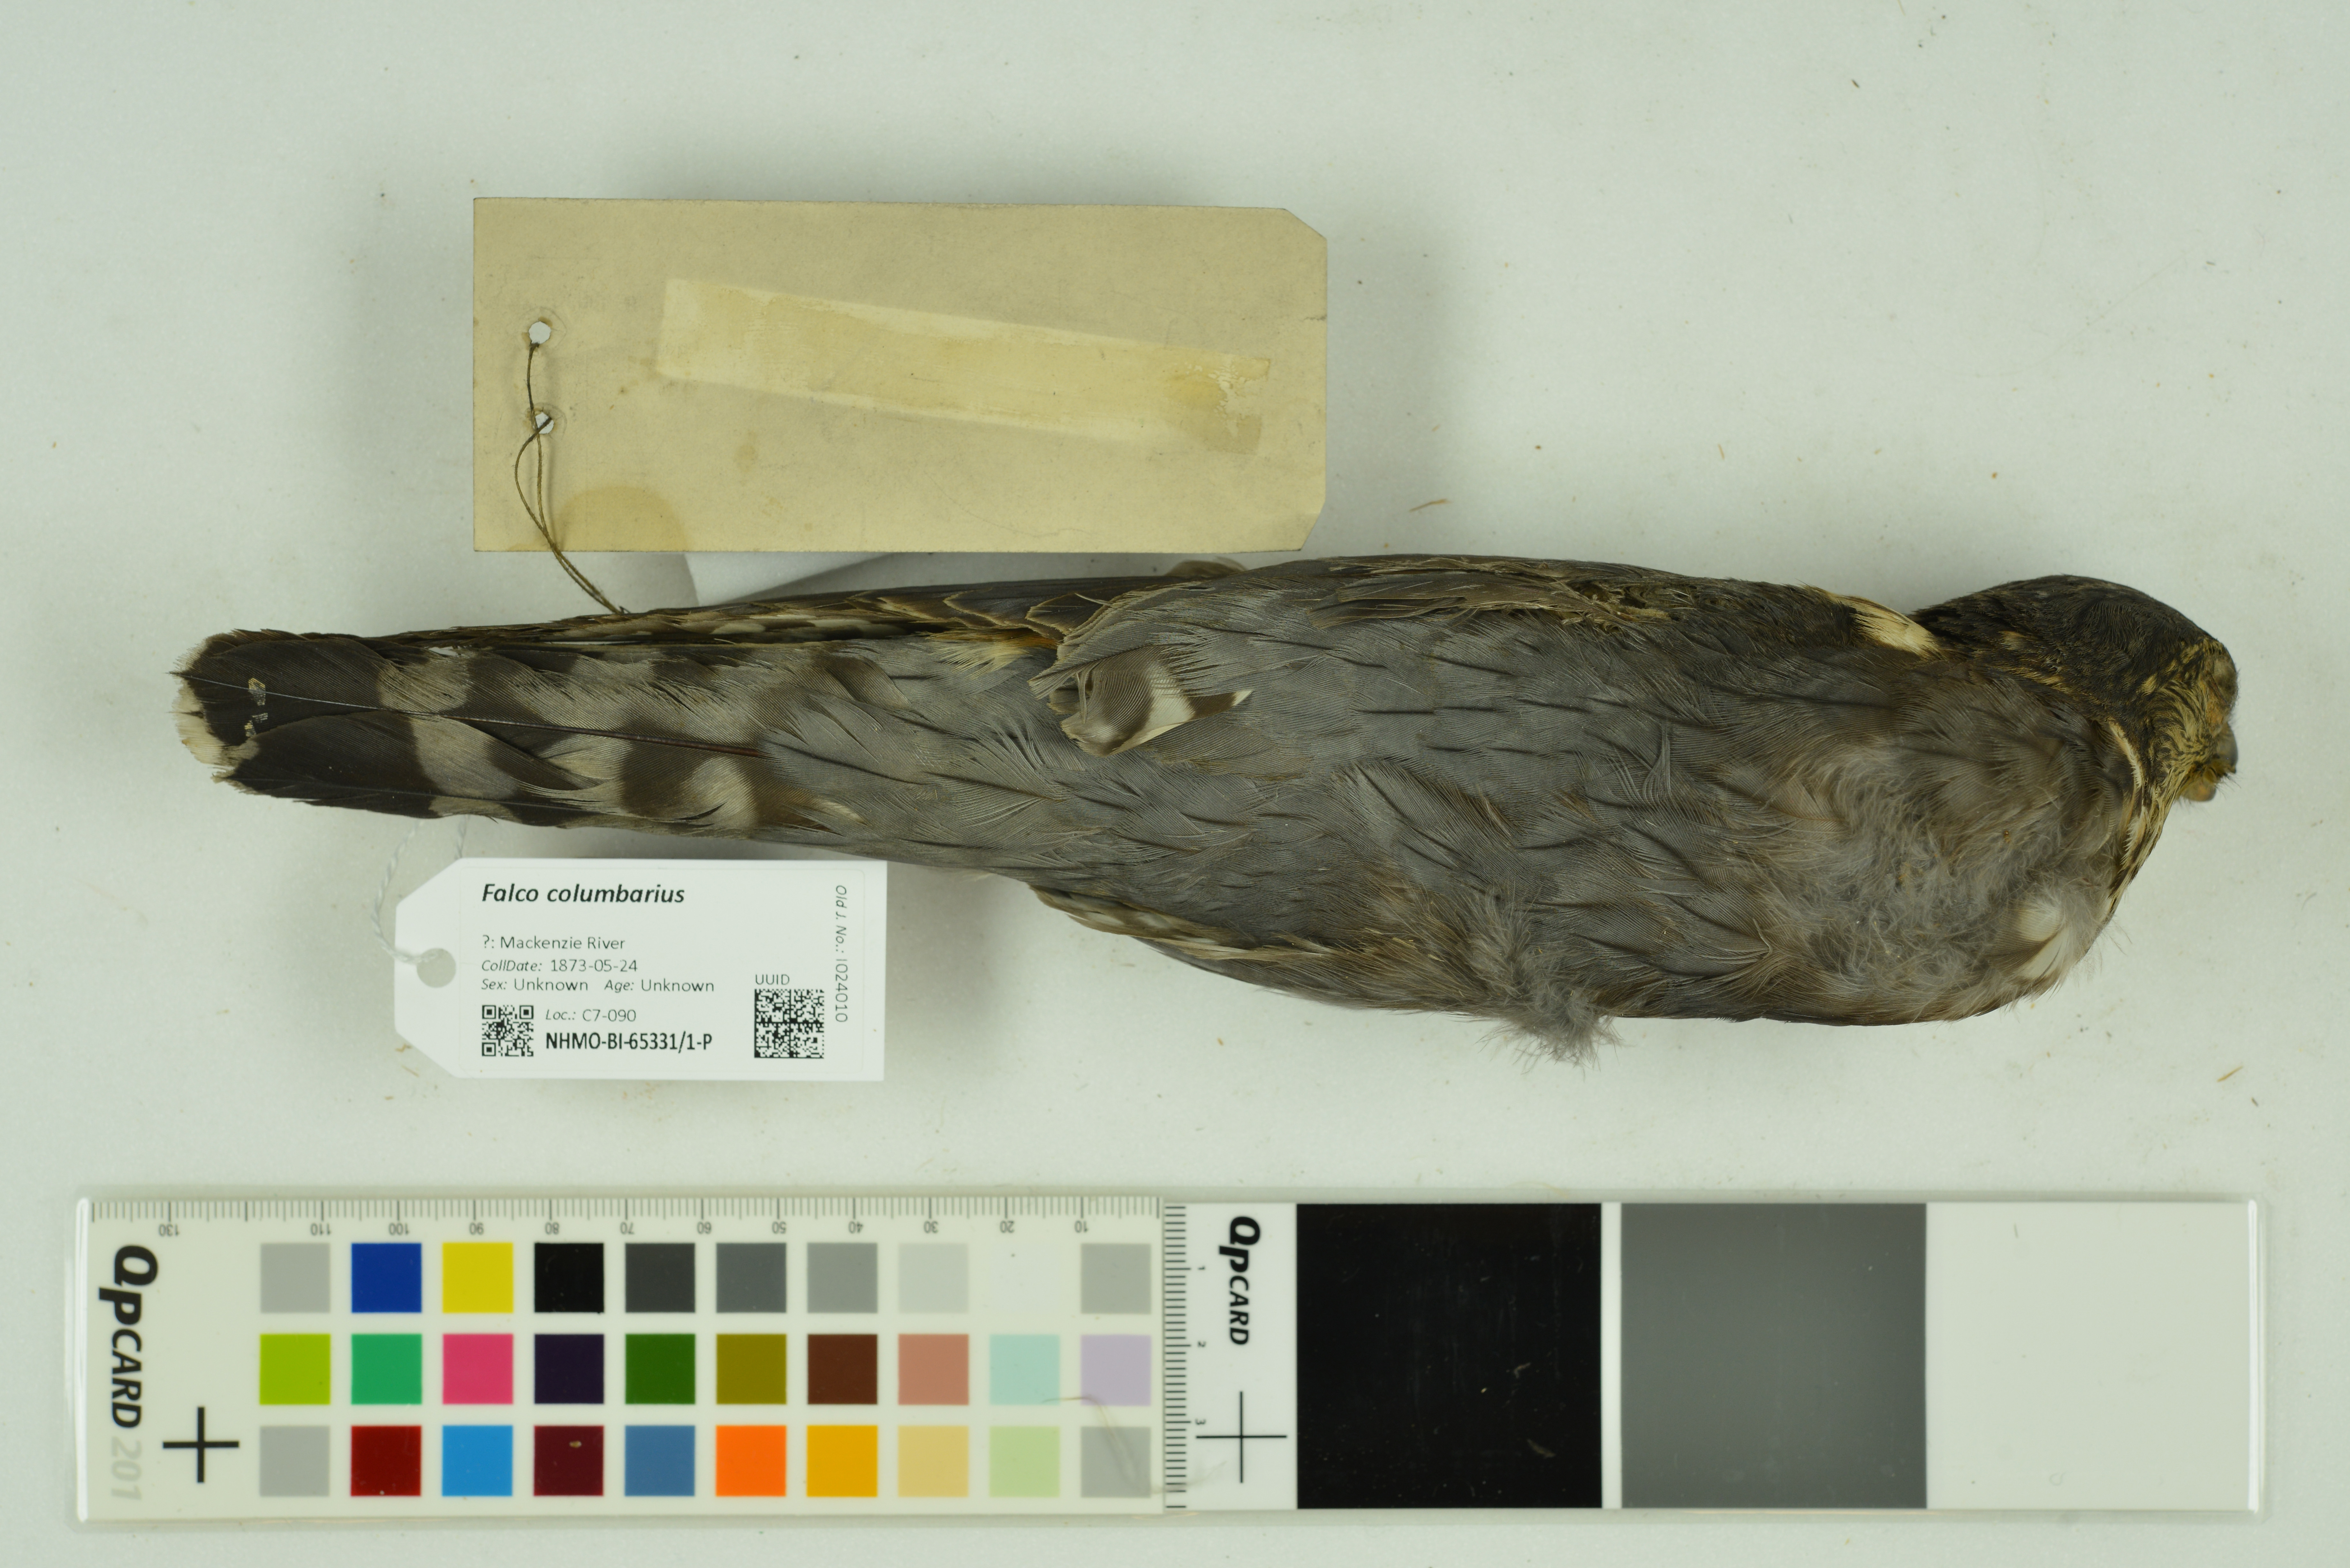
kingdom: Animalia
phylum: Chordata
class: Aves
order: Falconiformes
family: Falconidae
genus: Falco
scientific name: Falco columbarius
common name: Merlin
